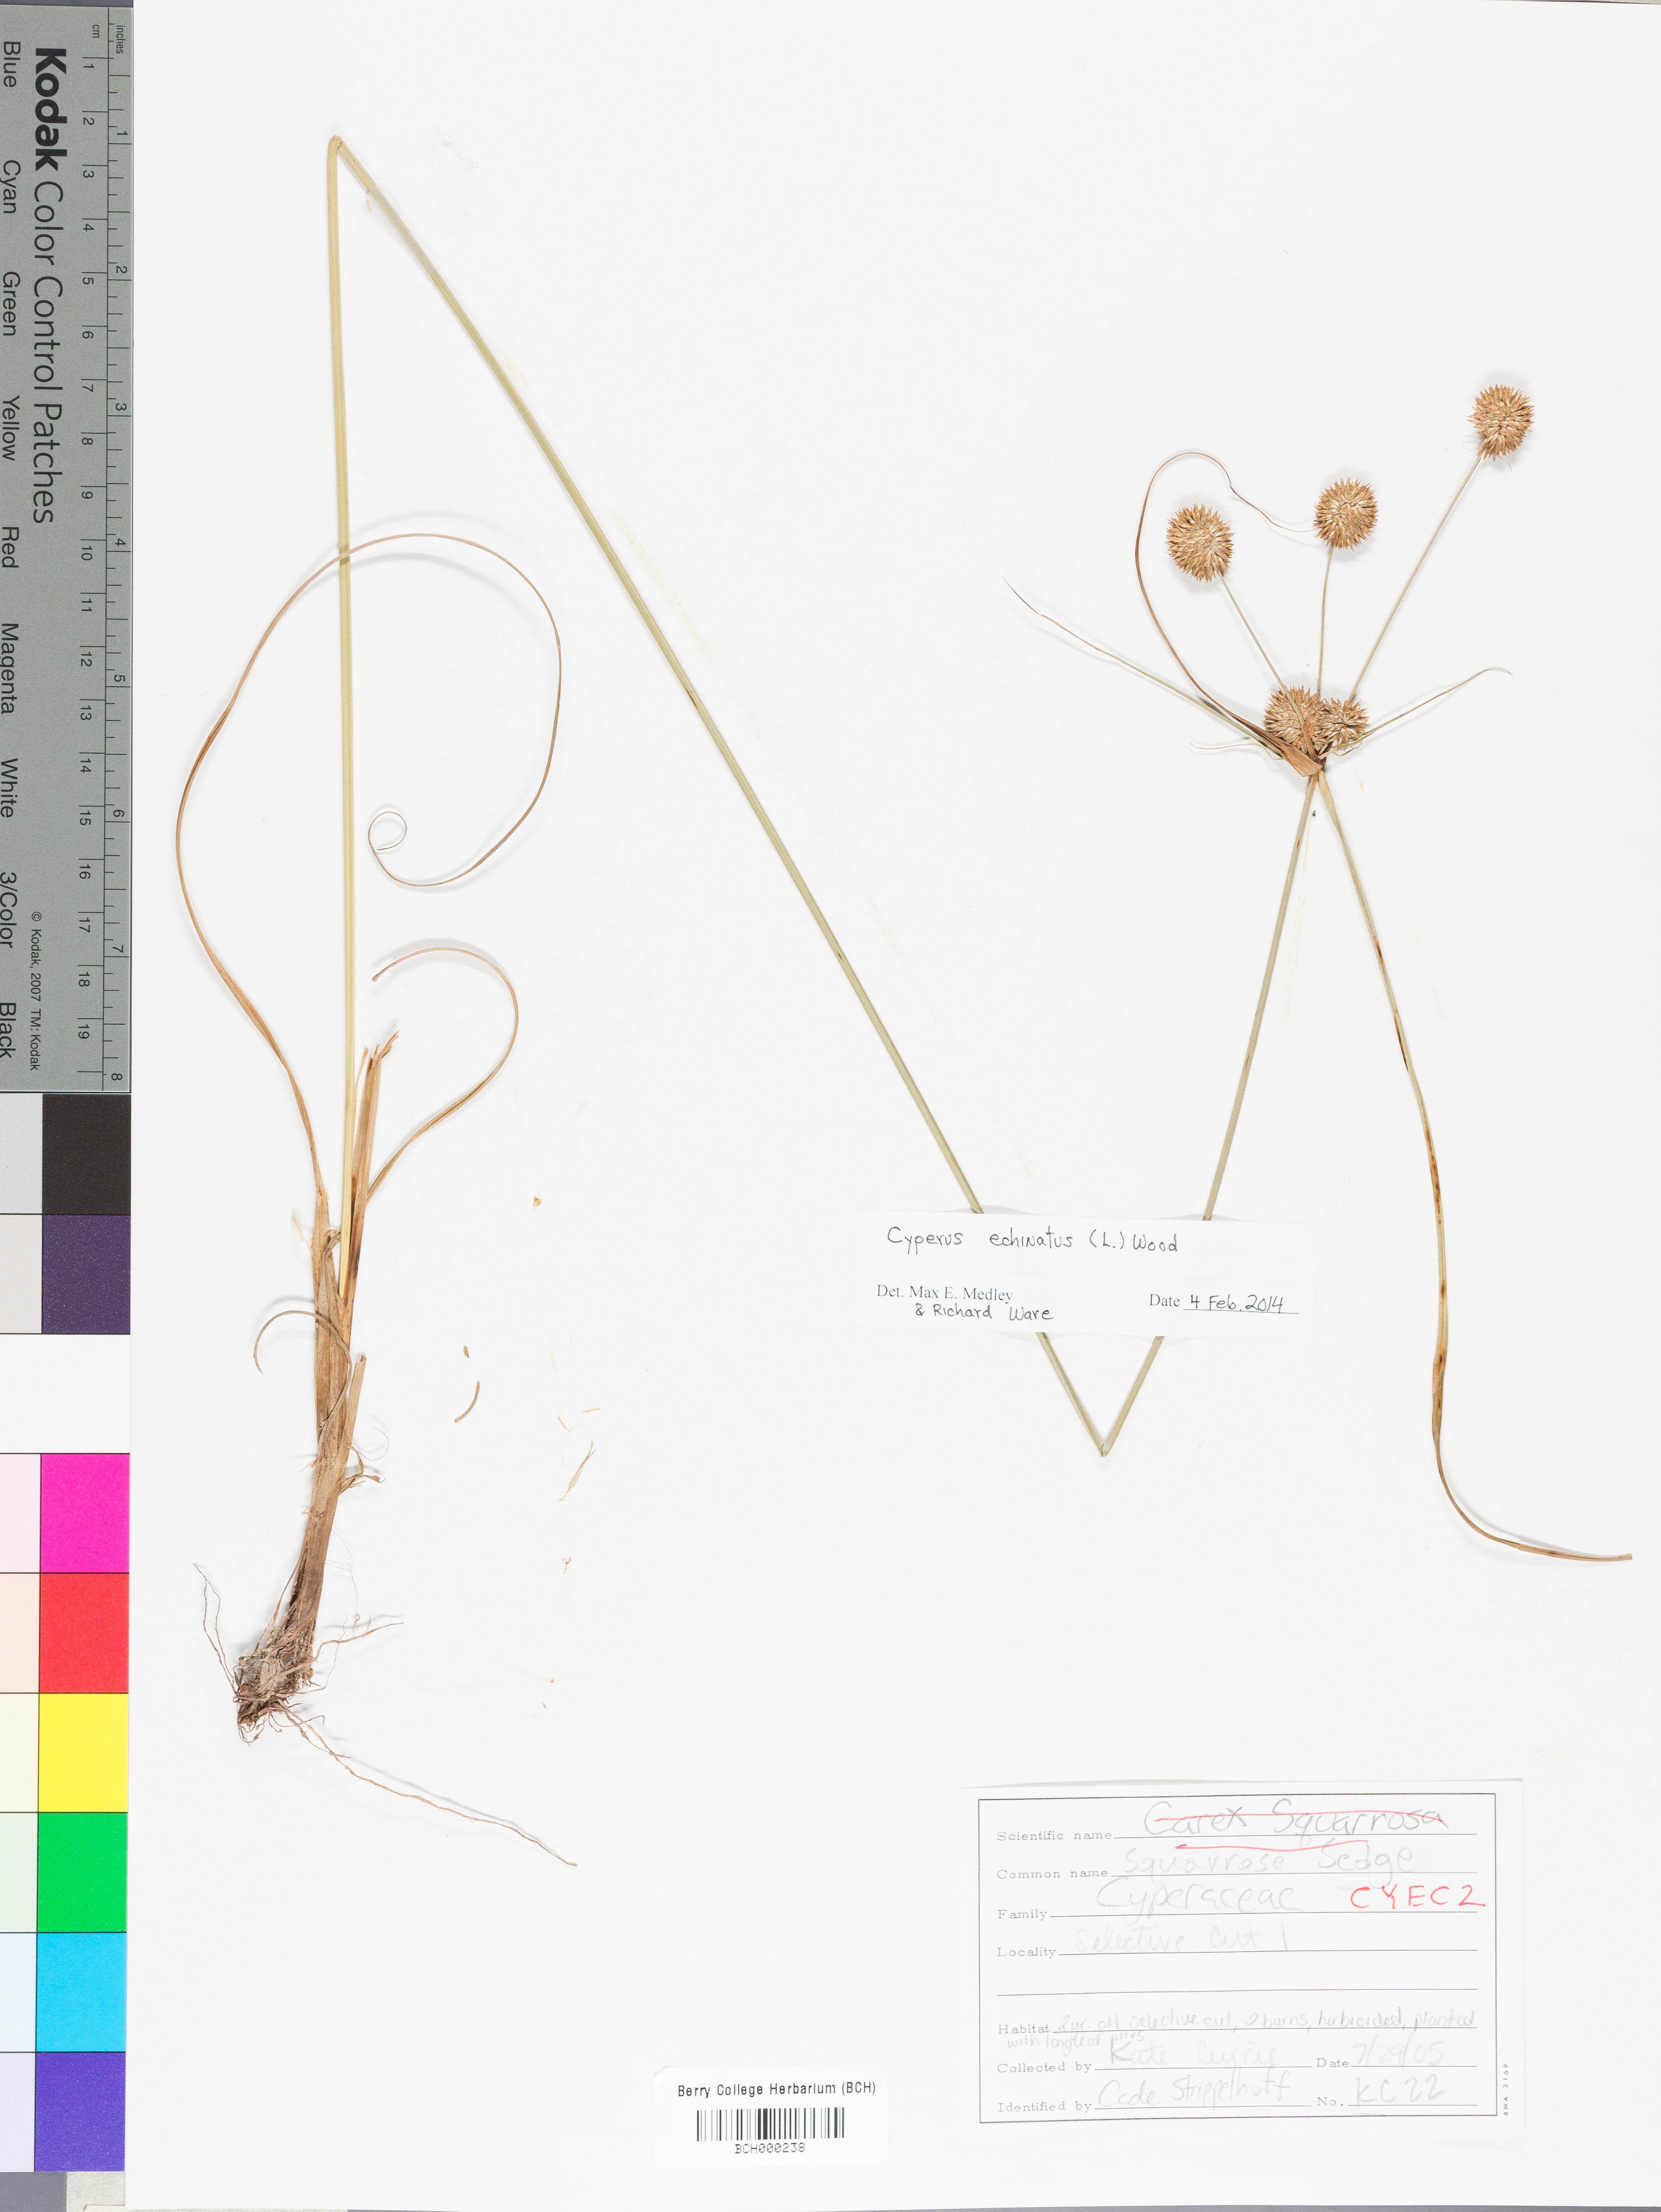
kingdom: Plantae
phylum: Tracheophyta
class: Liliopsida
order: Poales
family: Cyperaceae
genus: Cyperus
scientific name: Cyperus echinatus
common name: Teasel sedge
